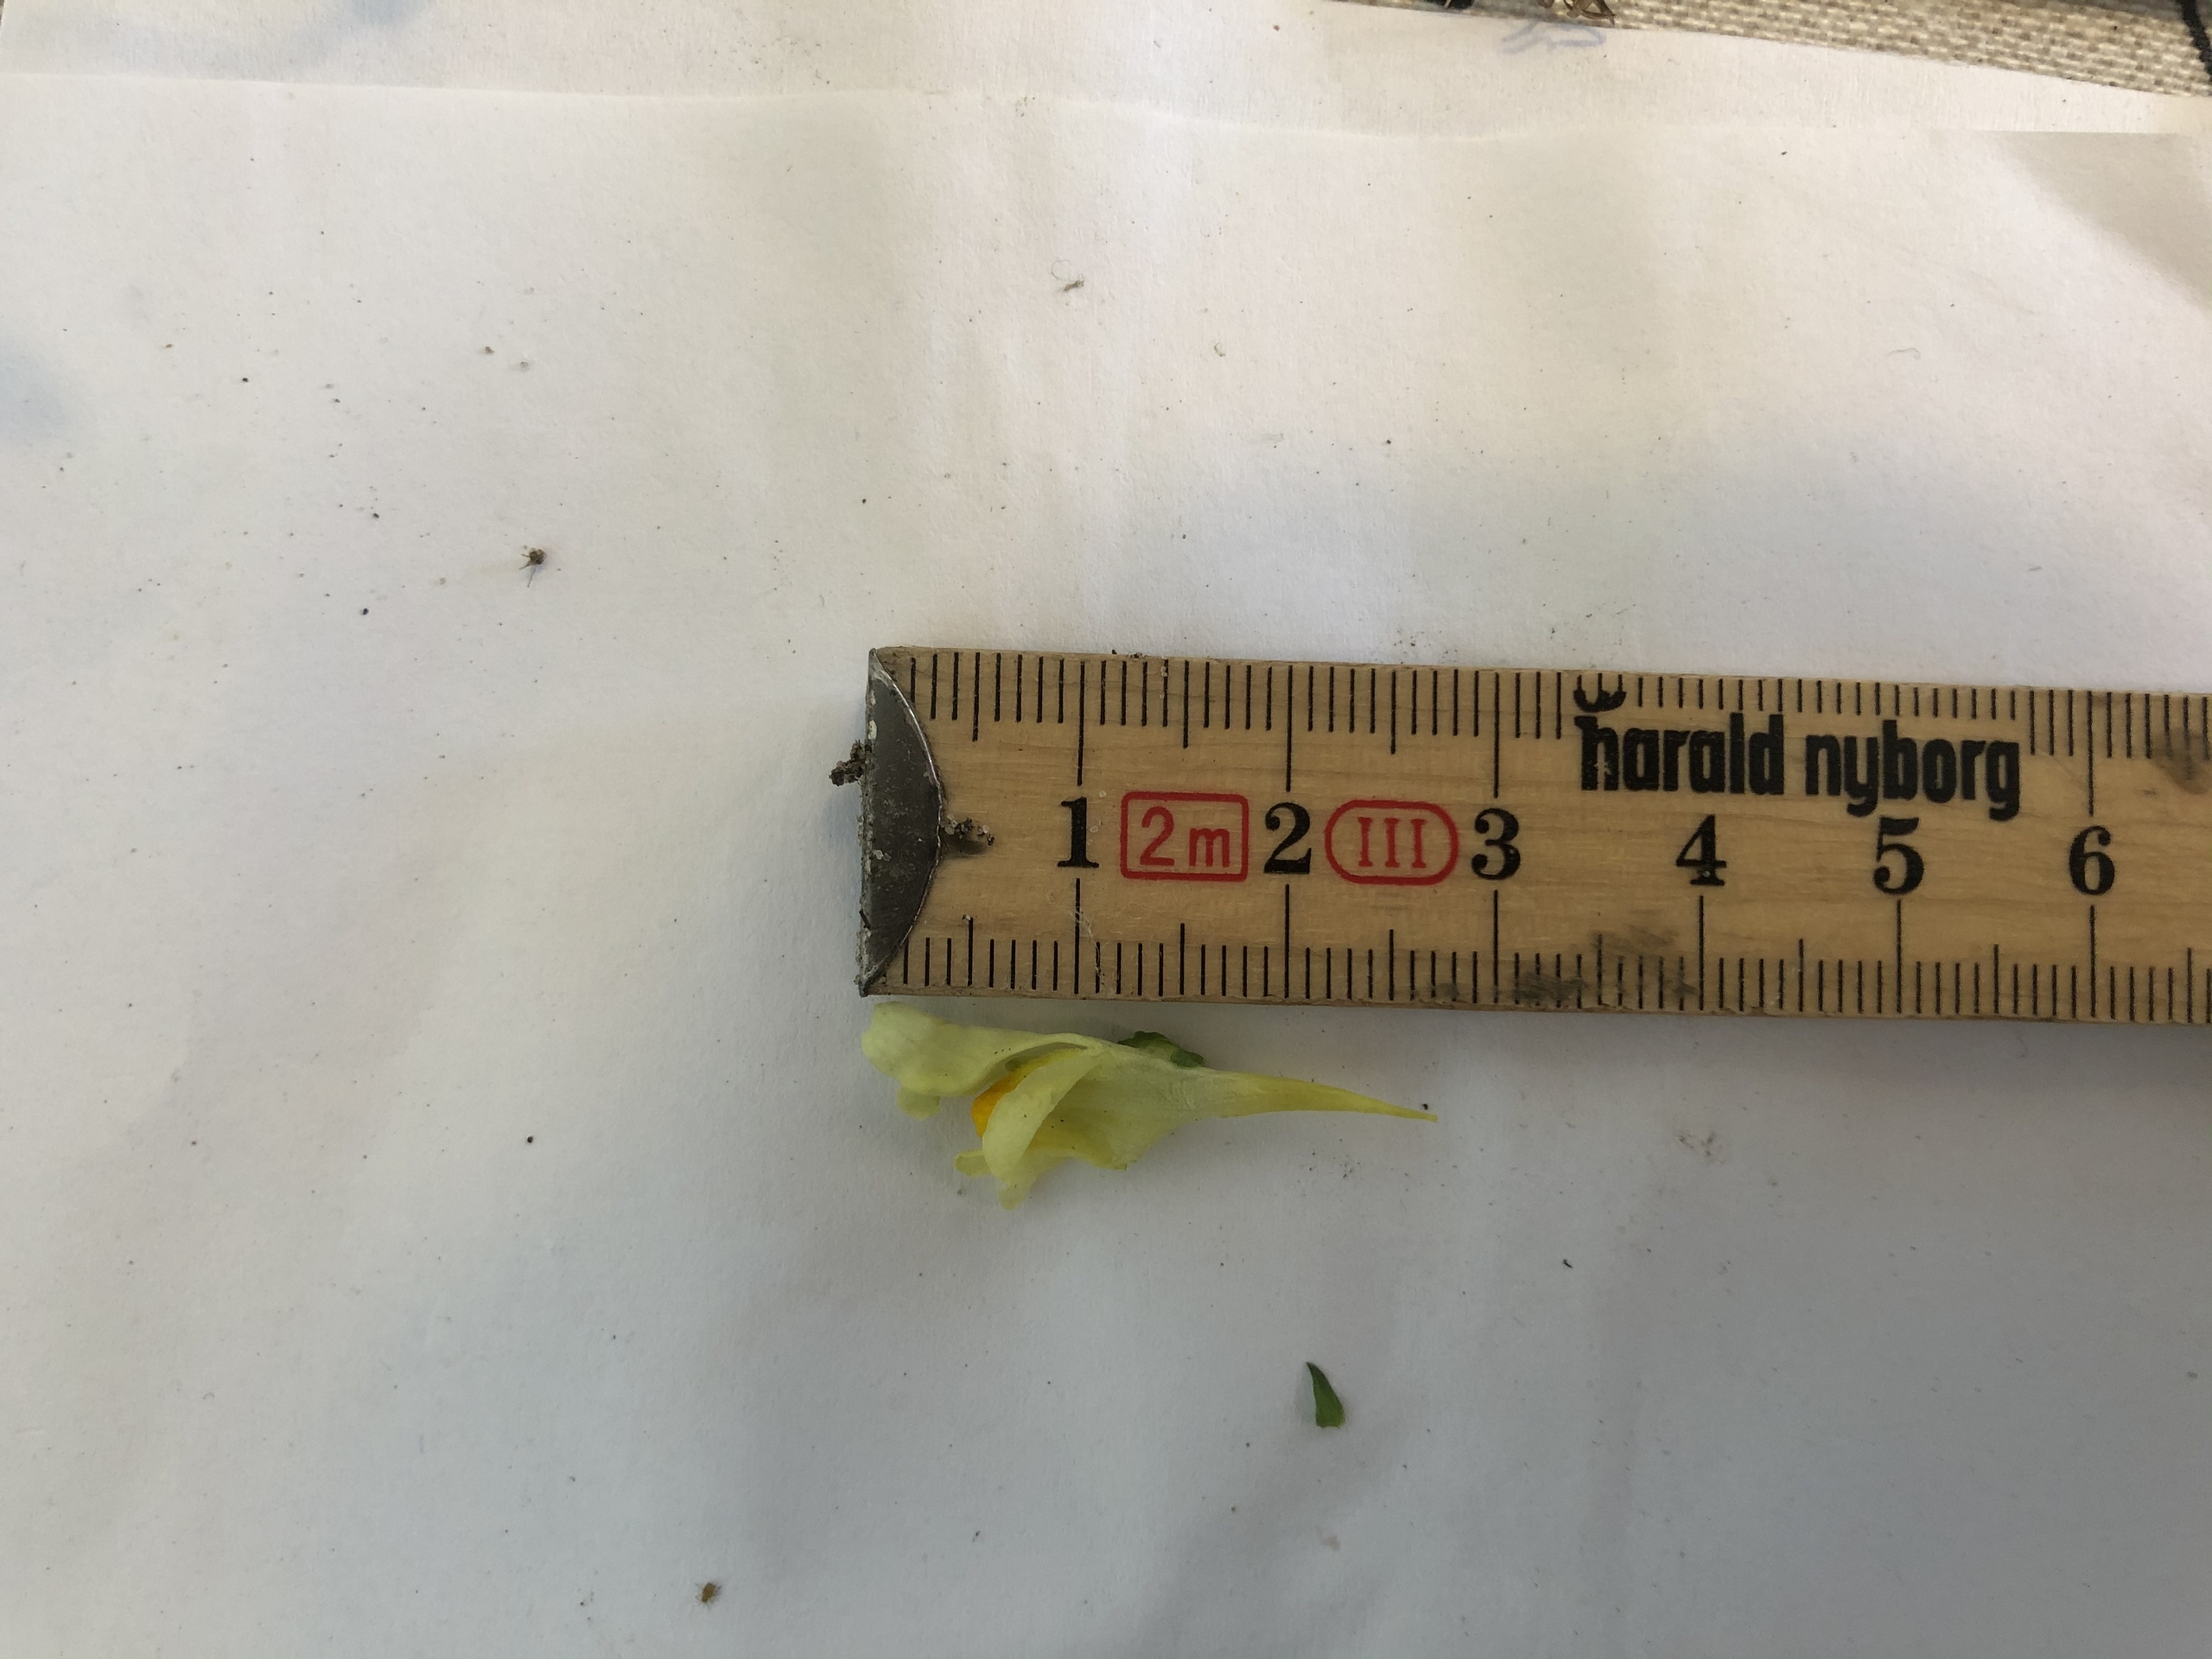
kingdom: Plantae
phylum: Tracheophyta
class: Magnoliopsida
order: Lamiales
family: Plantaginaceae
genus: Linaria
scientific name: Linaria vulgaris
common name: Almindelig torskemund
